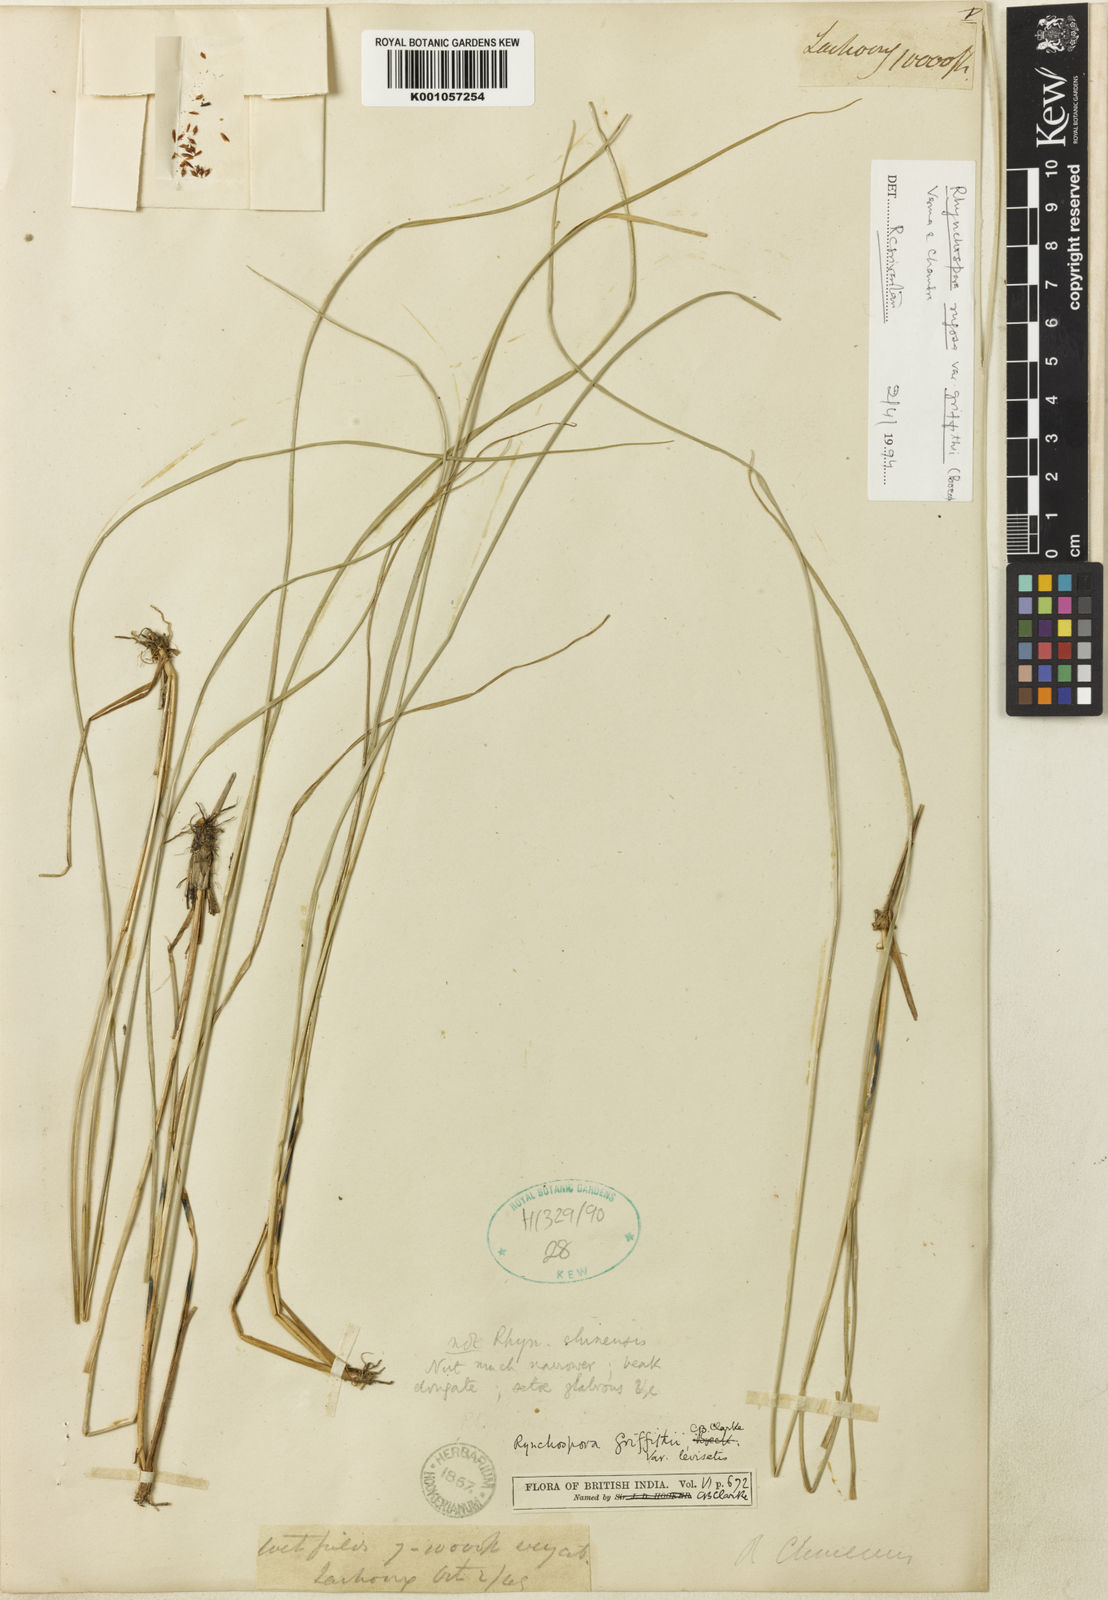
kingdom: Plantae
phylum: Tracheophyta
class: Liliopsida
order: Poales
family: Cyperaceae
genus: Rhynchospora
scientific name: Rhynchospora brownii
